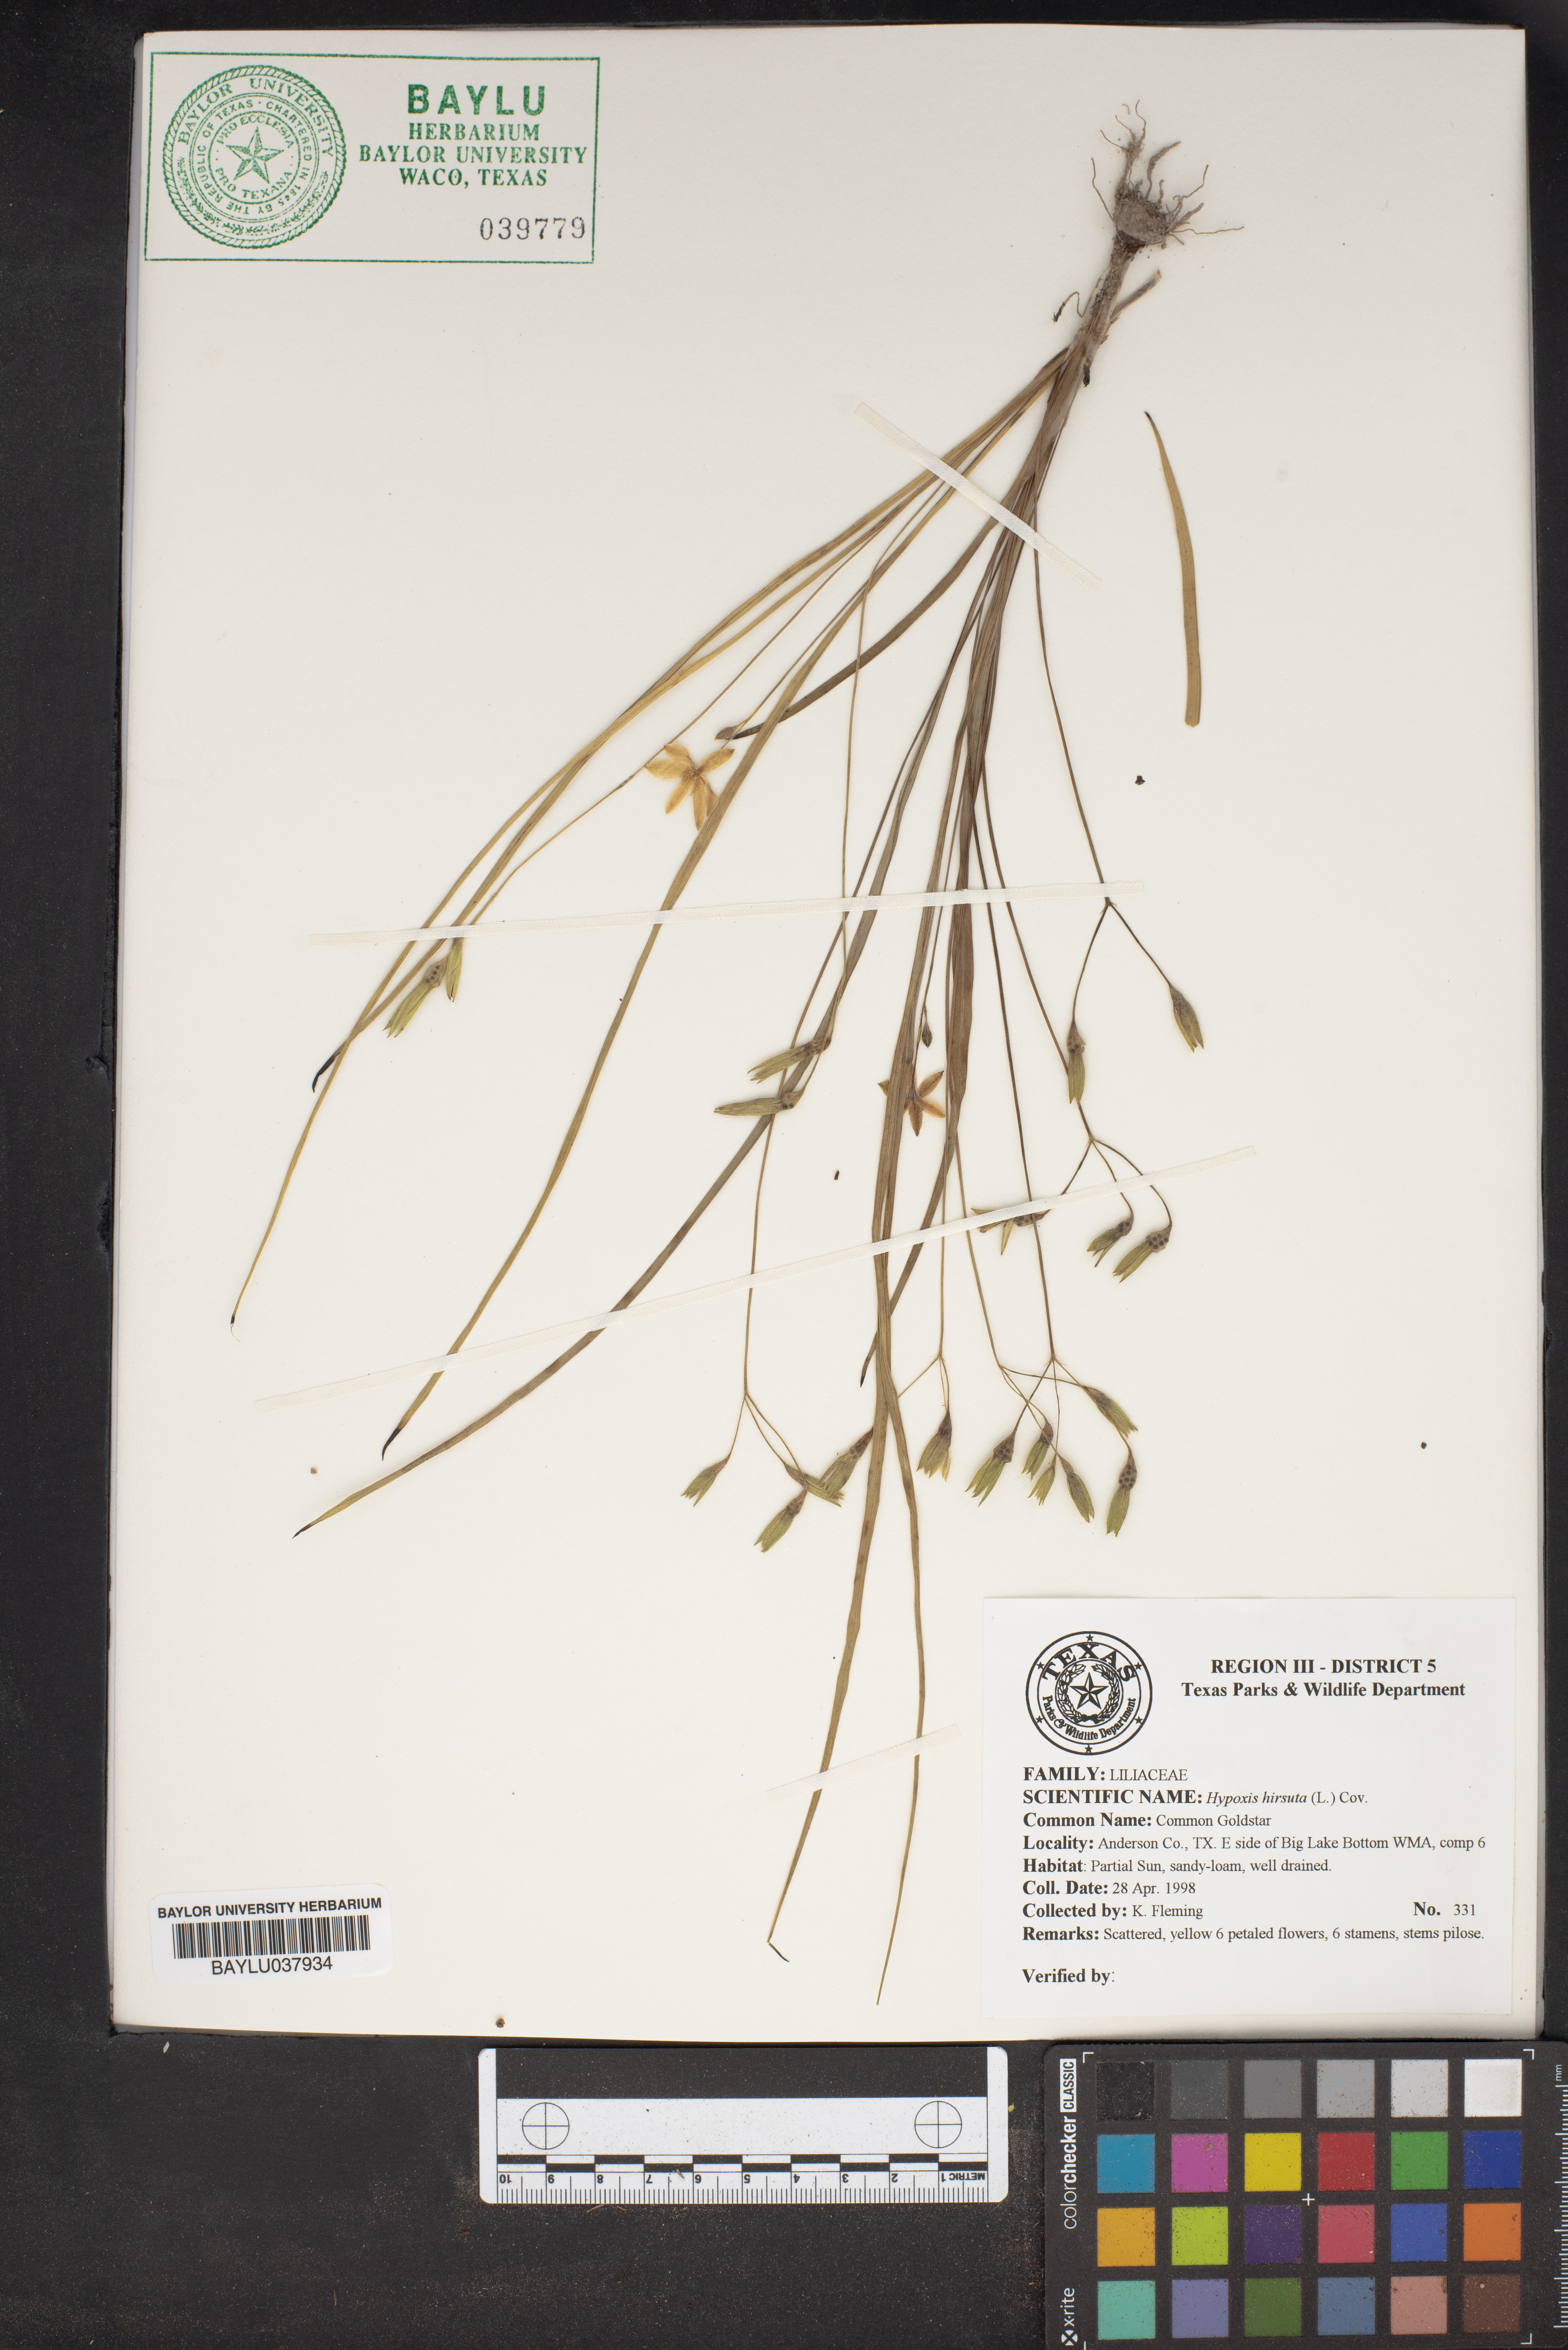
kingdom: Plantae
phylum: Tracheophyta
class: Liliopsida
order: Asparagales
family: Hypoxidaceae
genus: Hypoxis
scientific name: Hypoxis hirsuta
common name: Common goldstar
